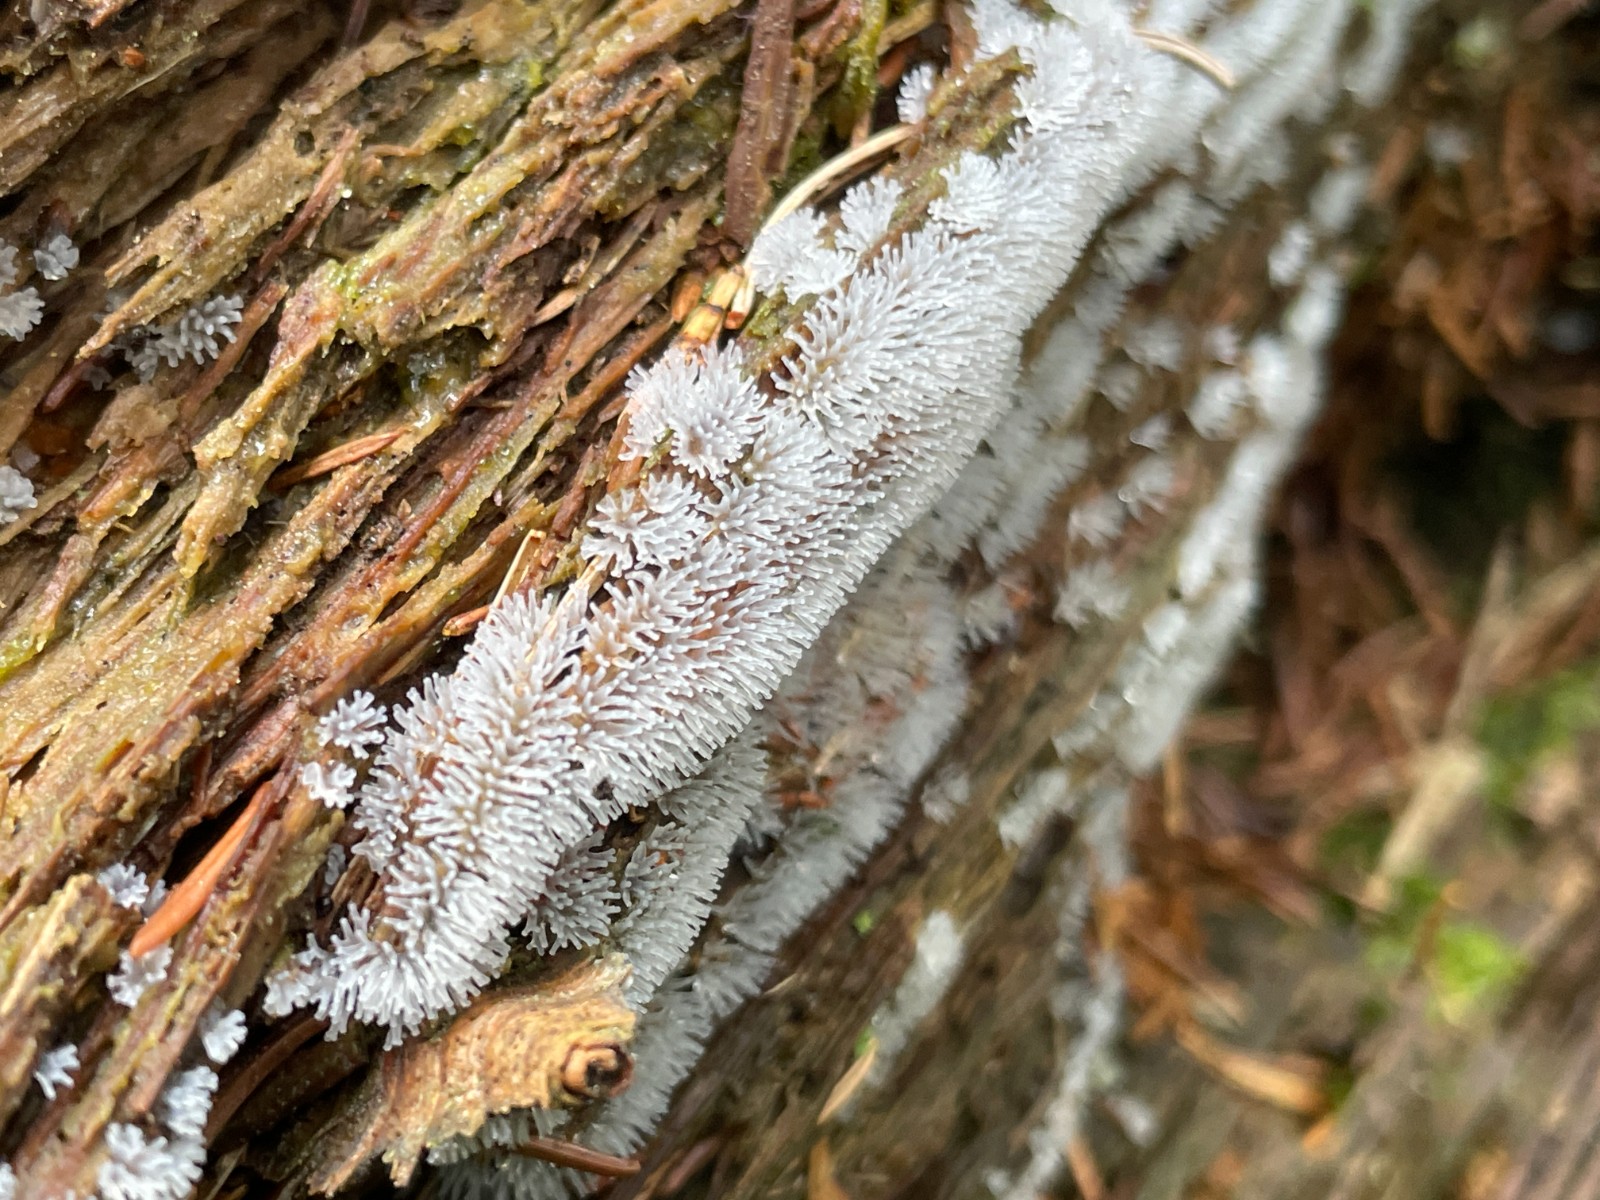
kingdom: Protozoa
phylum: Mycetozoa
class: Protosteliomycetes
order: Ceratiomyxales
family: Ceratiomyxaceae
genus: Ceratiomyxa
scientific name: Ceratiomyxa fruticulosa
